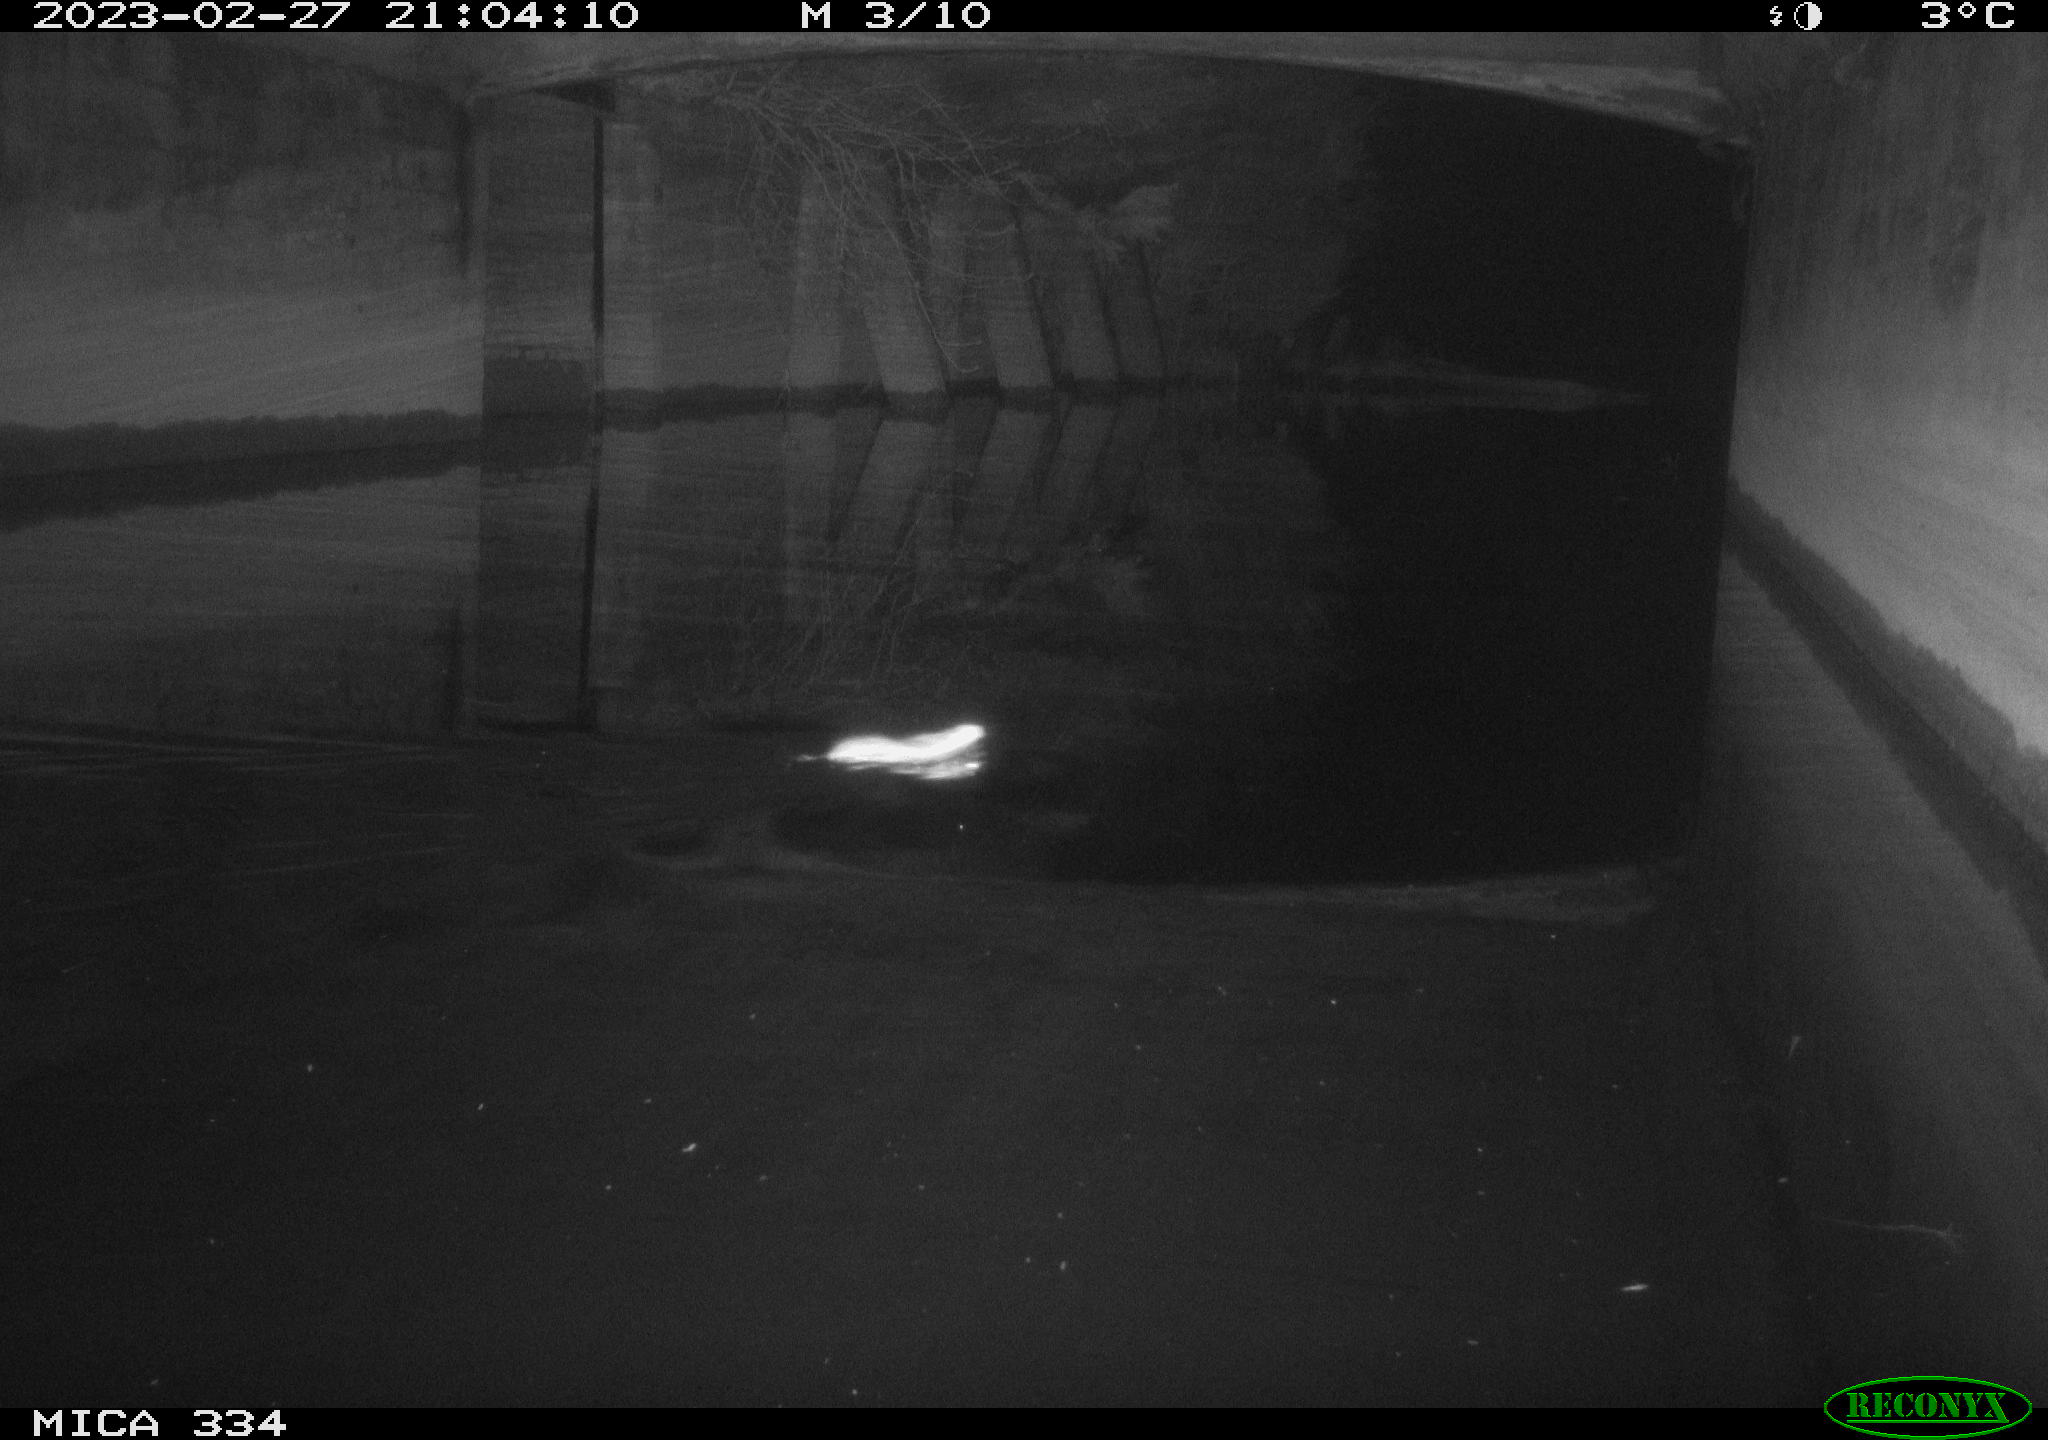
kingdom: Animalia
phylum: Chordata
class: Mammalia
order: Rodentia
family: Muridae
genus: Rattus
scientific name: Rattus norvegicus
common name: Brown rat
